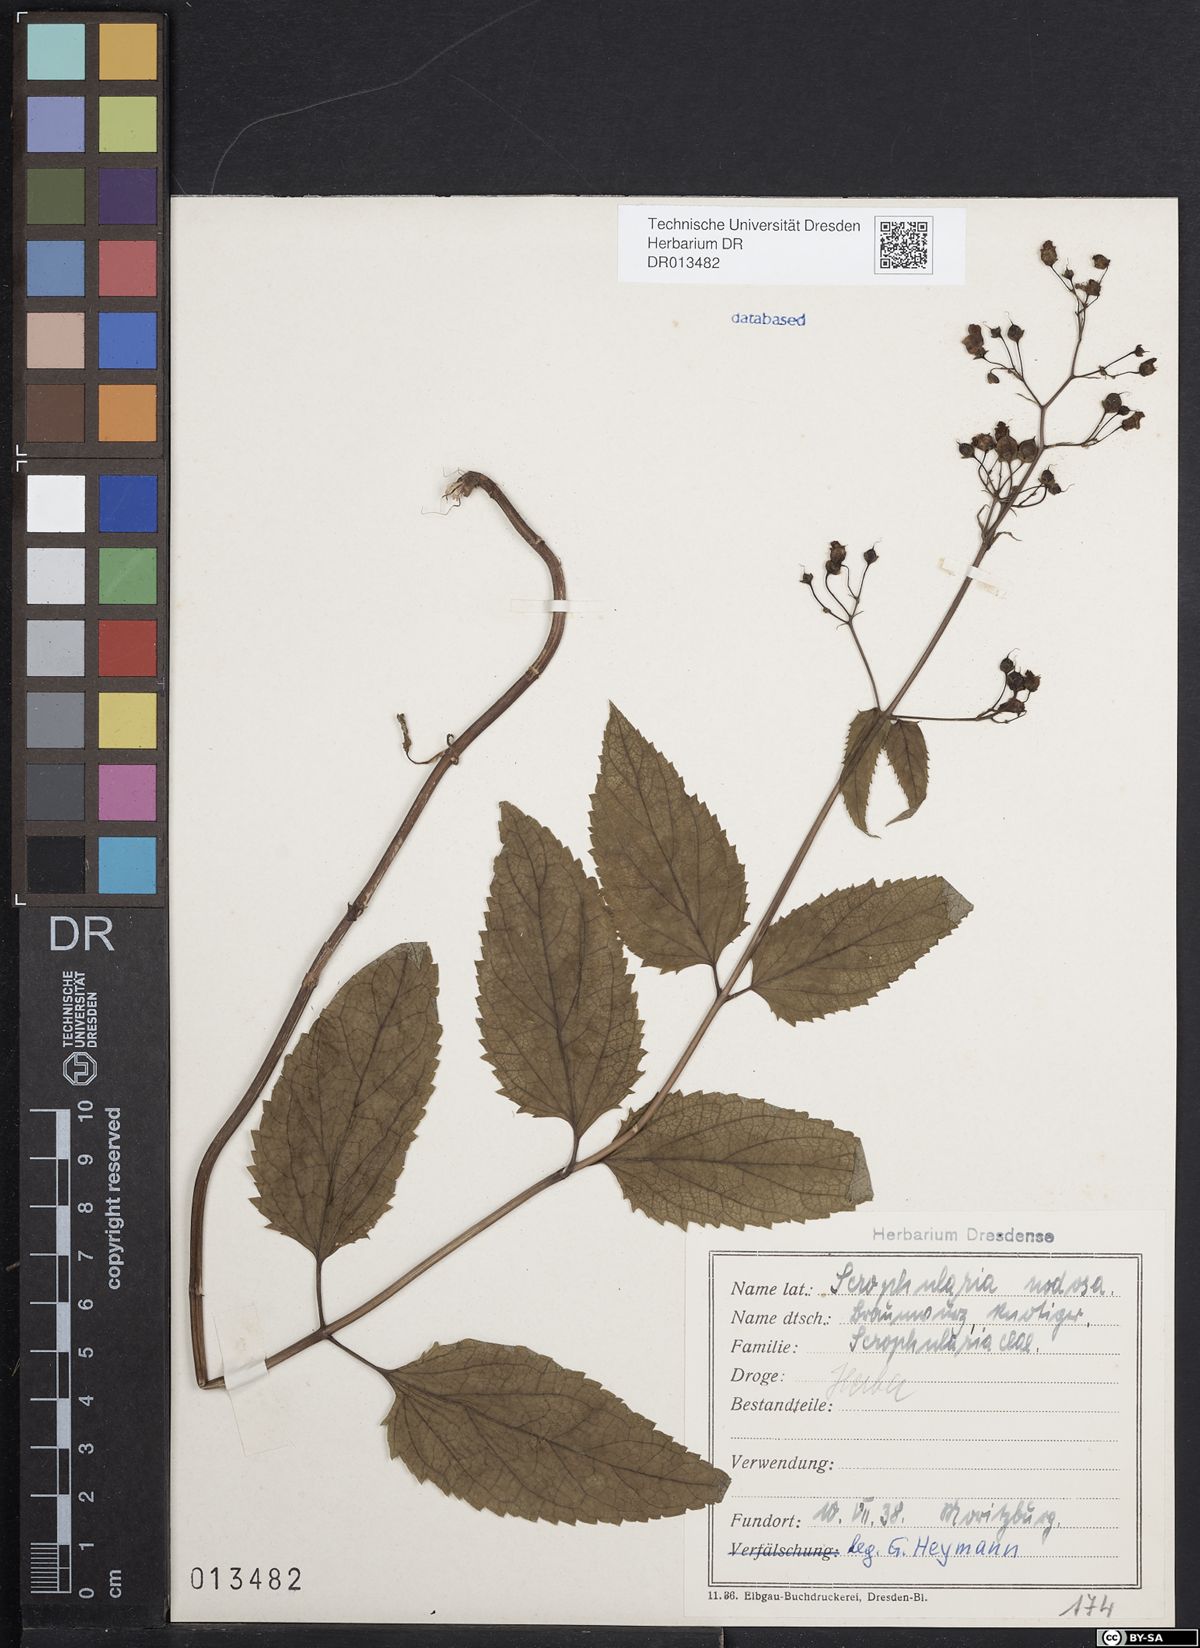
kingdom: Plantae
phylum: Tracheophyta
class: Magnoliopsida
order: Lamiales
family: Scrophulariaceae
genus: Scrophularia
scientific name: Scrophularia nodosa
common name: Common figwort
